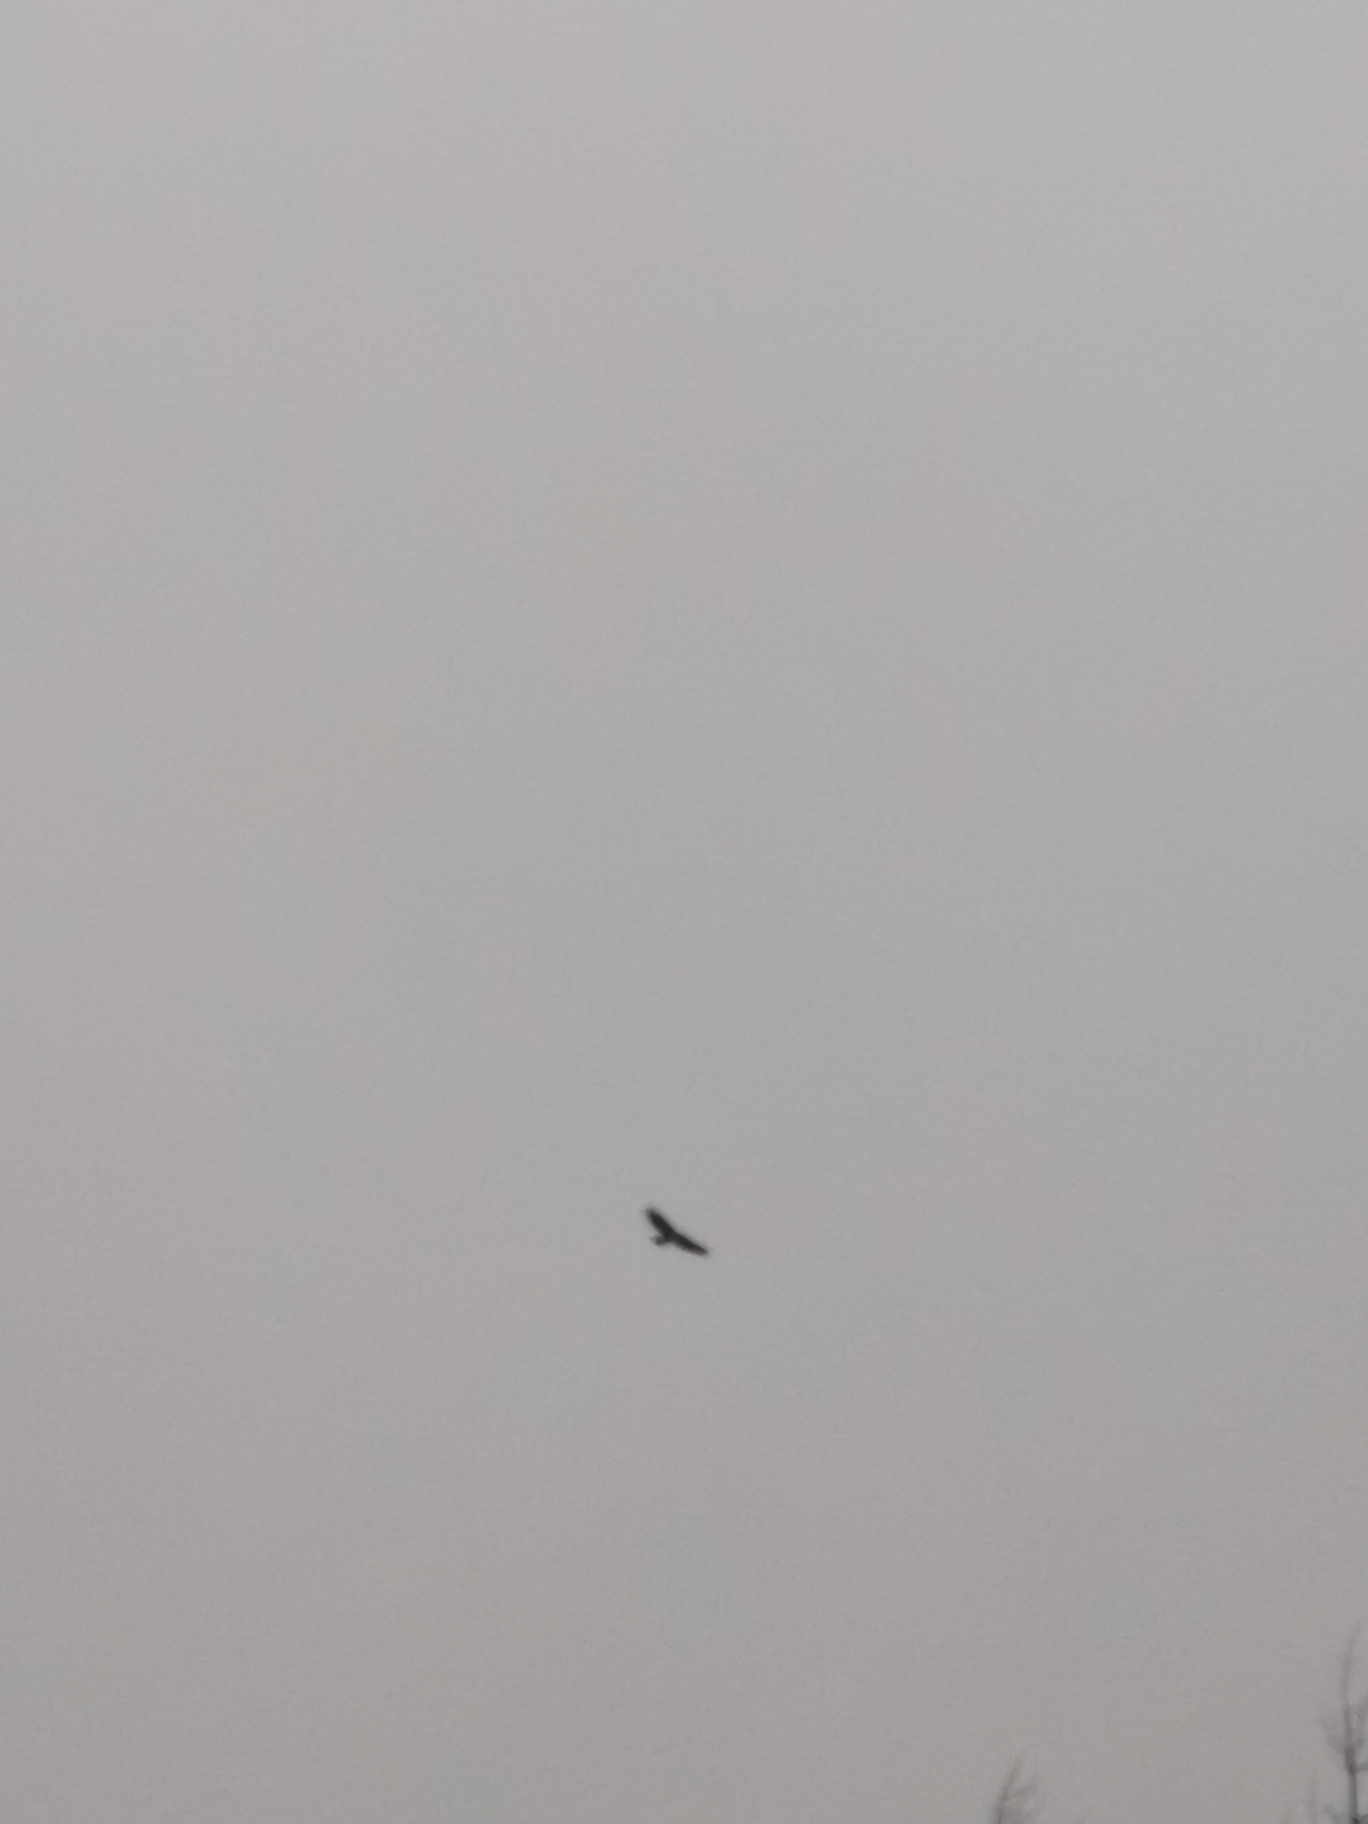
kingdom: Animalia
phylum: Chordata
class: Aves
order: Accipitriformes
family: Accipitridae
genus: Buteo
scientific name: Buteo buteo
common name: Musvåge
